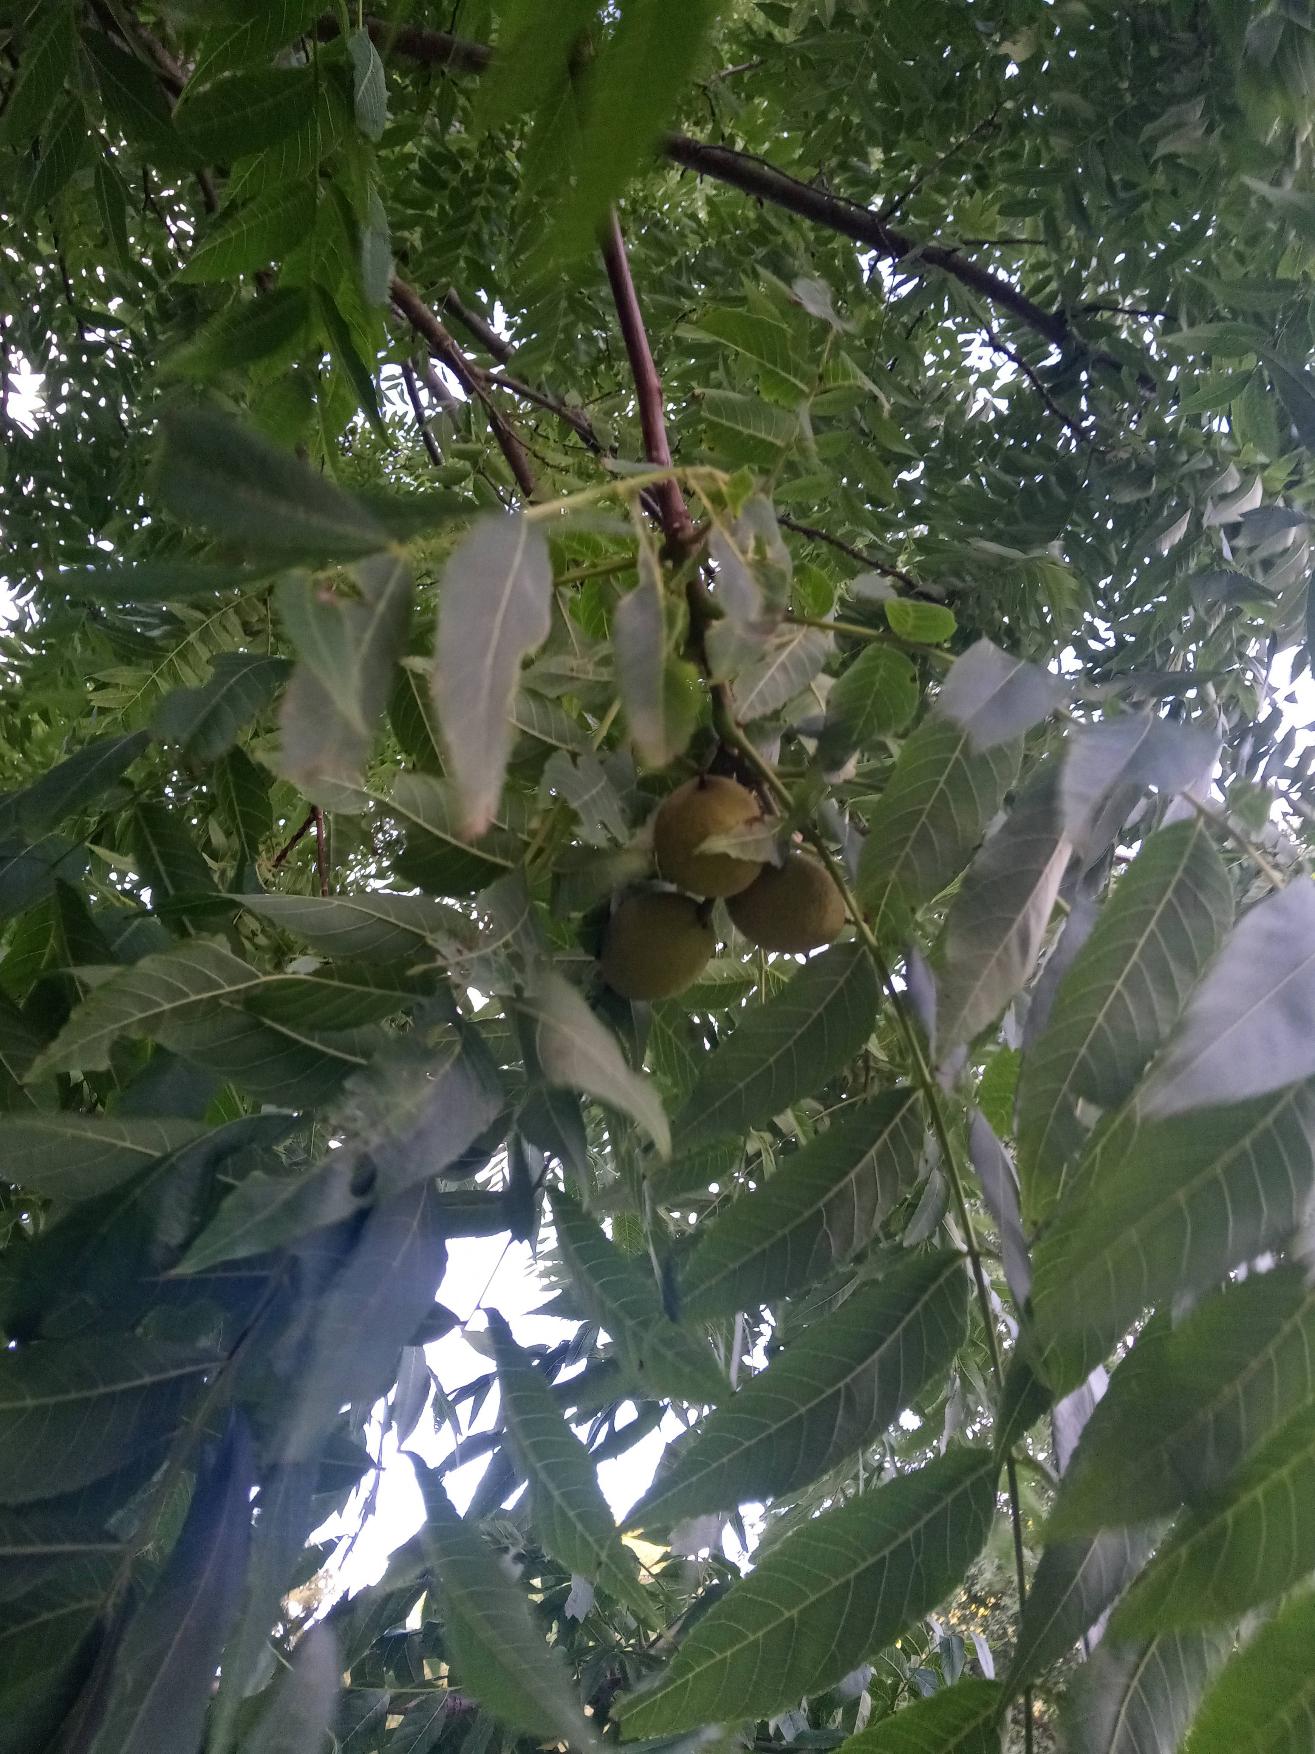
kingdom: Plantae
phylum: Tracheophyta
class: Magnoliopsida
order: Fagales
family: Juglandaceae
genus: Juglans
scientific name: Juglans nigra
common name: Sort valnød
